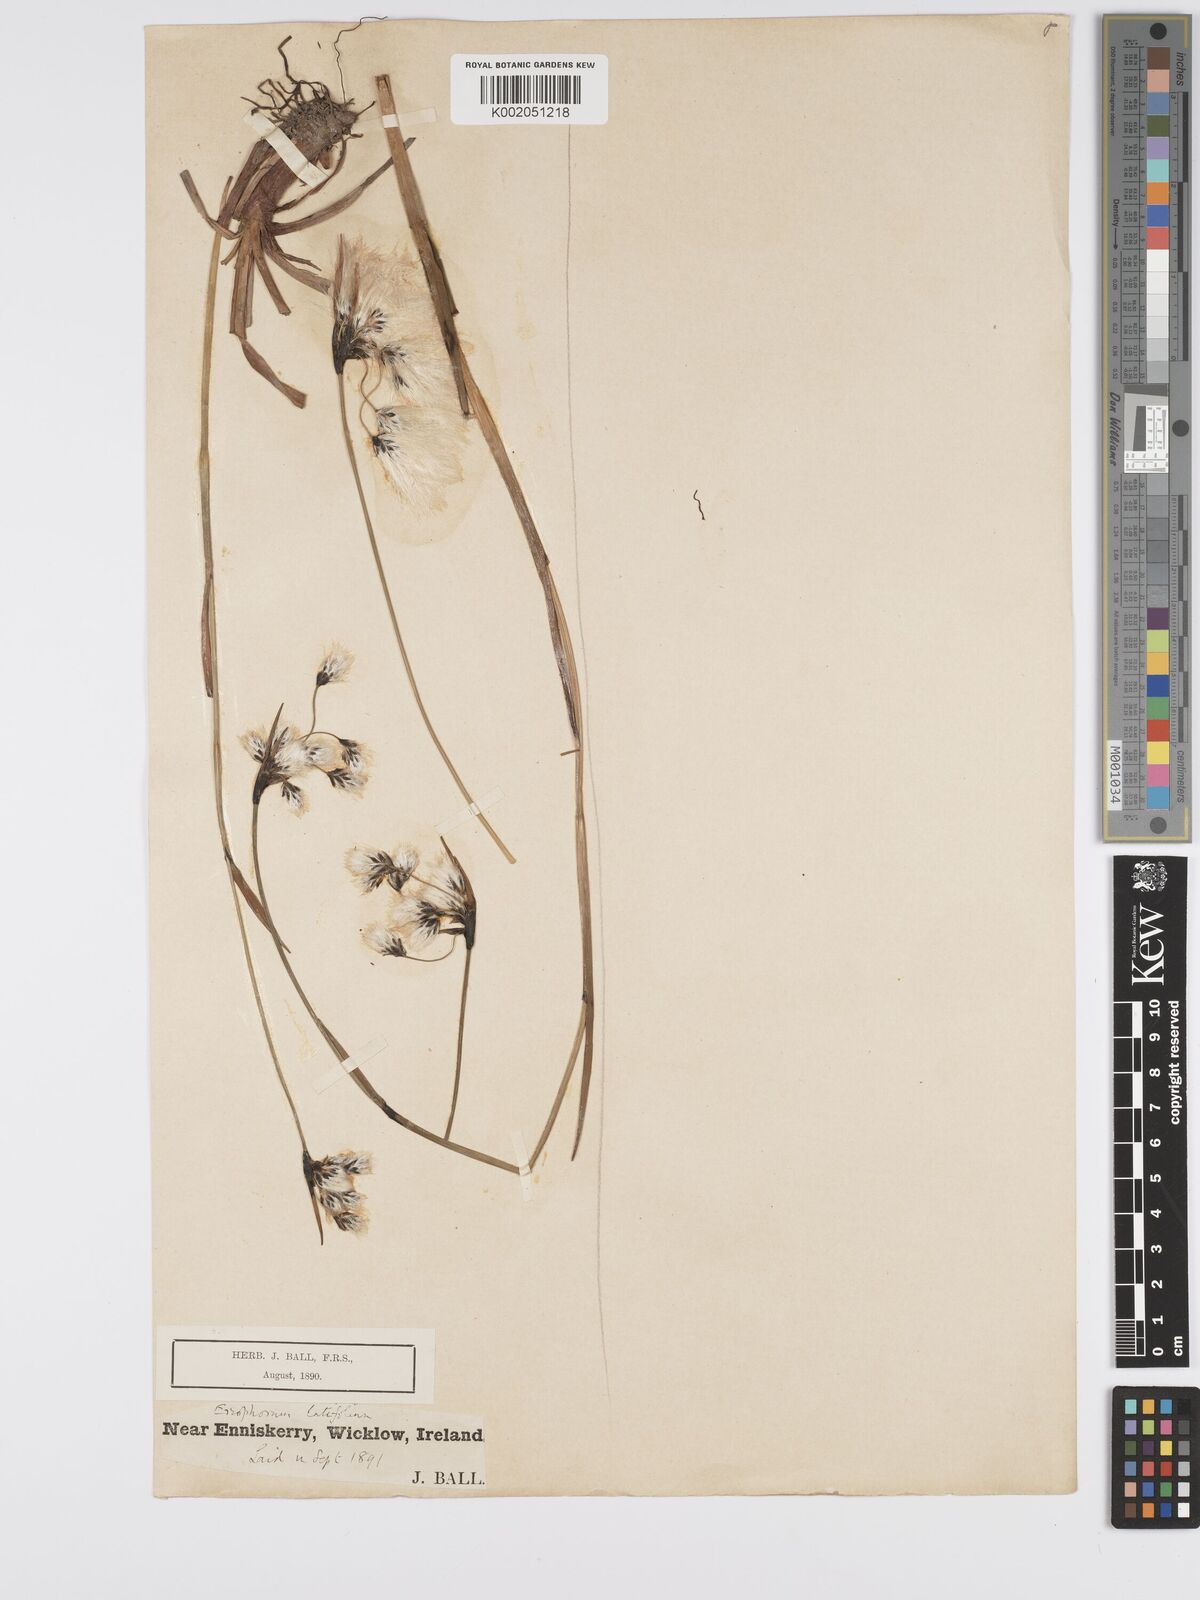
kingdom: Plantae
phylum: Tracheophyta
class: Liliopsida
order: Poales
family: Cyperaceae
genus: Eriophorum
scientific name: Eriophorum latifolium
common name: Broad-leaved cottongrass
